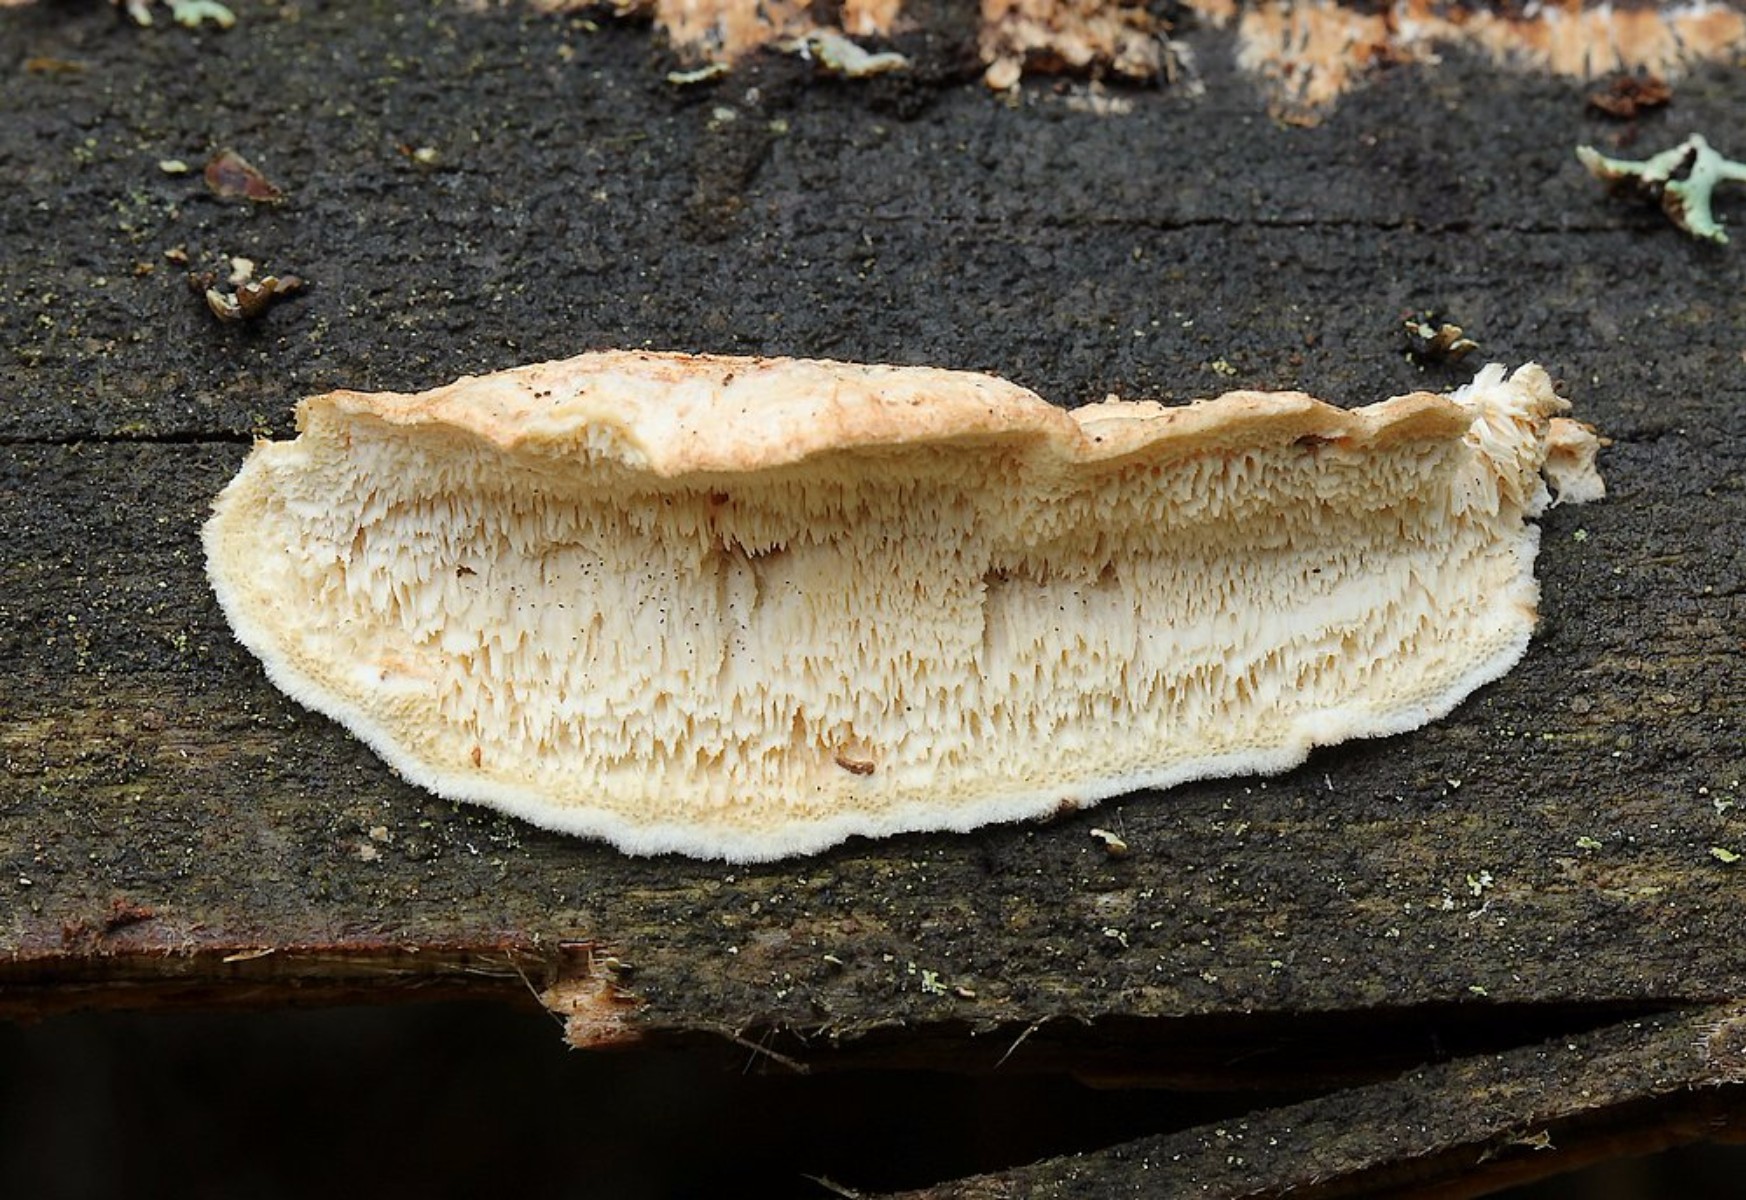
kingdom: Fungi
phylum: Basidiomycota
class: Agaricomycetes
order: Polyporales
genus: Fuscopostia
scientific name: Fuscopostia fragilis
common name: brunende kødporesvamp
